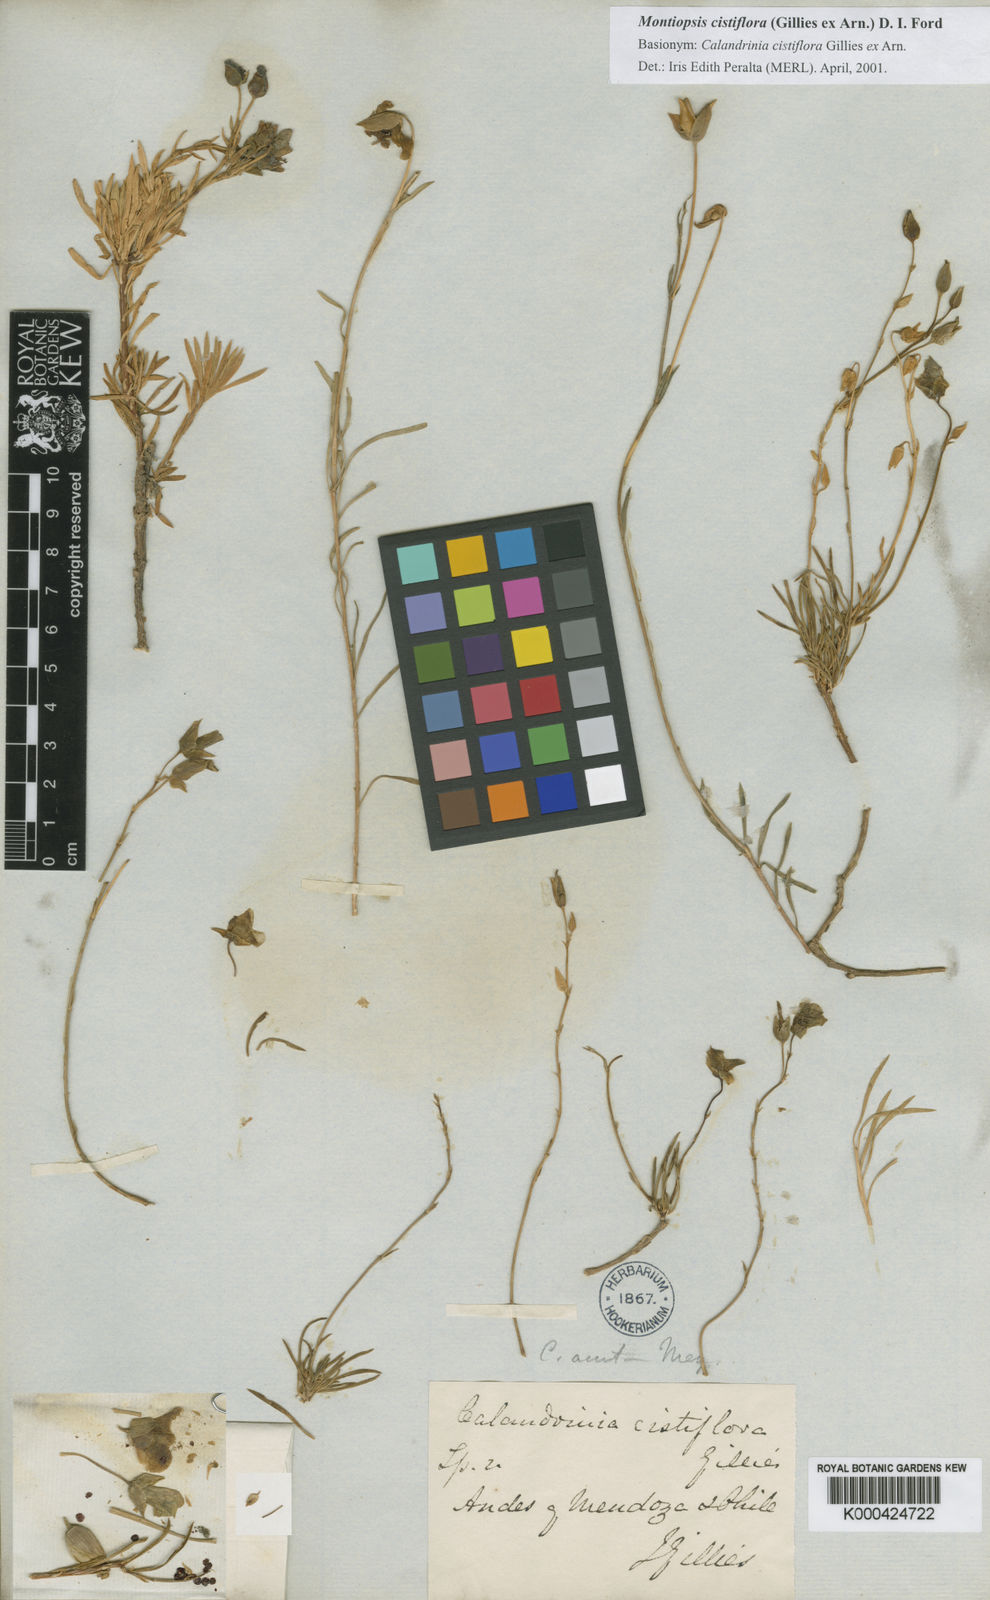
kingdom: Plantae
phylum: Tracheophyta
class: Magnoliopsida
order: Caryophyllales
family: Montiaceae
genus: Montiopsis
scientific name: Montiopsis cistiflora
